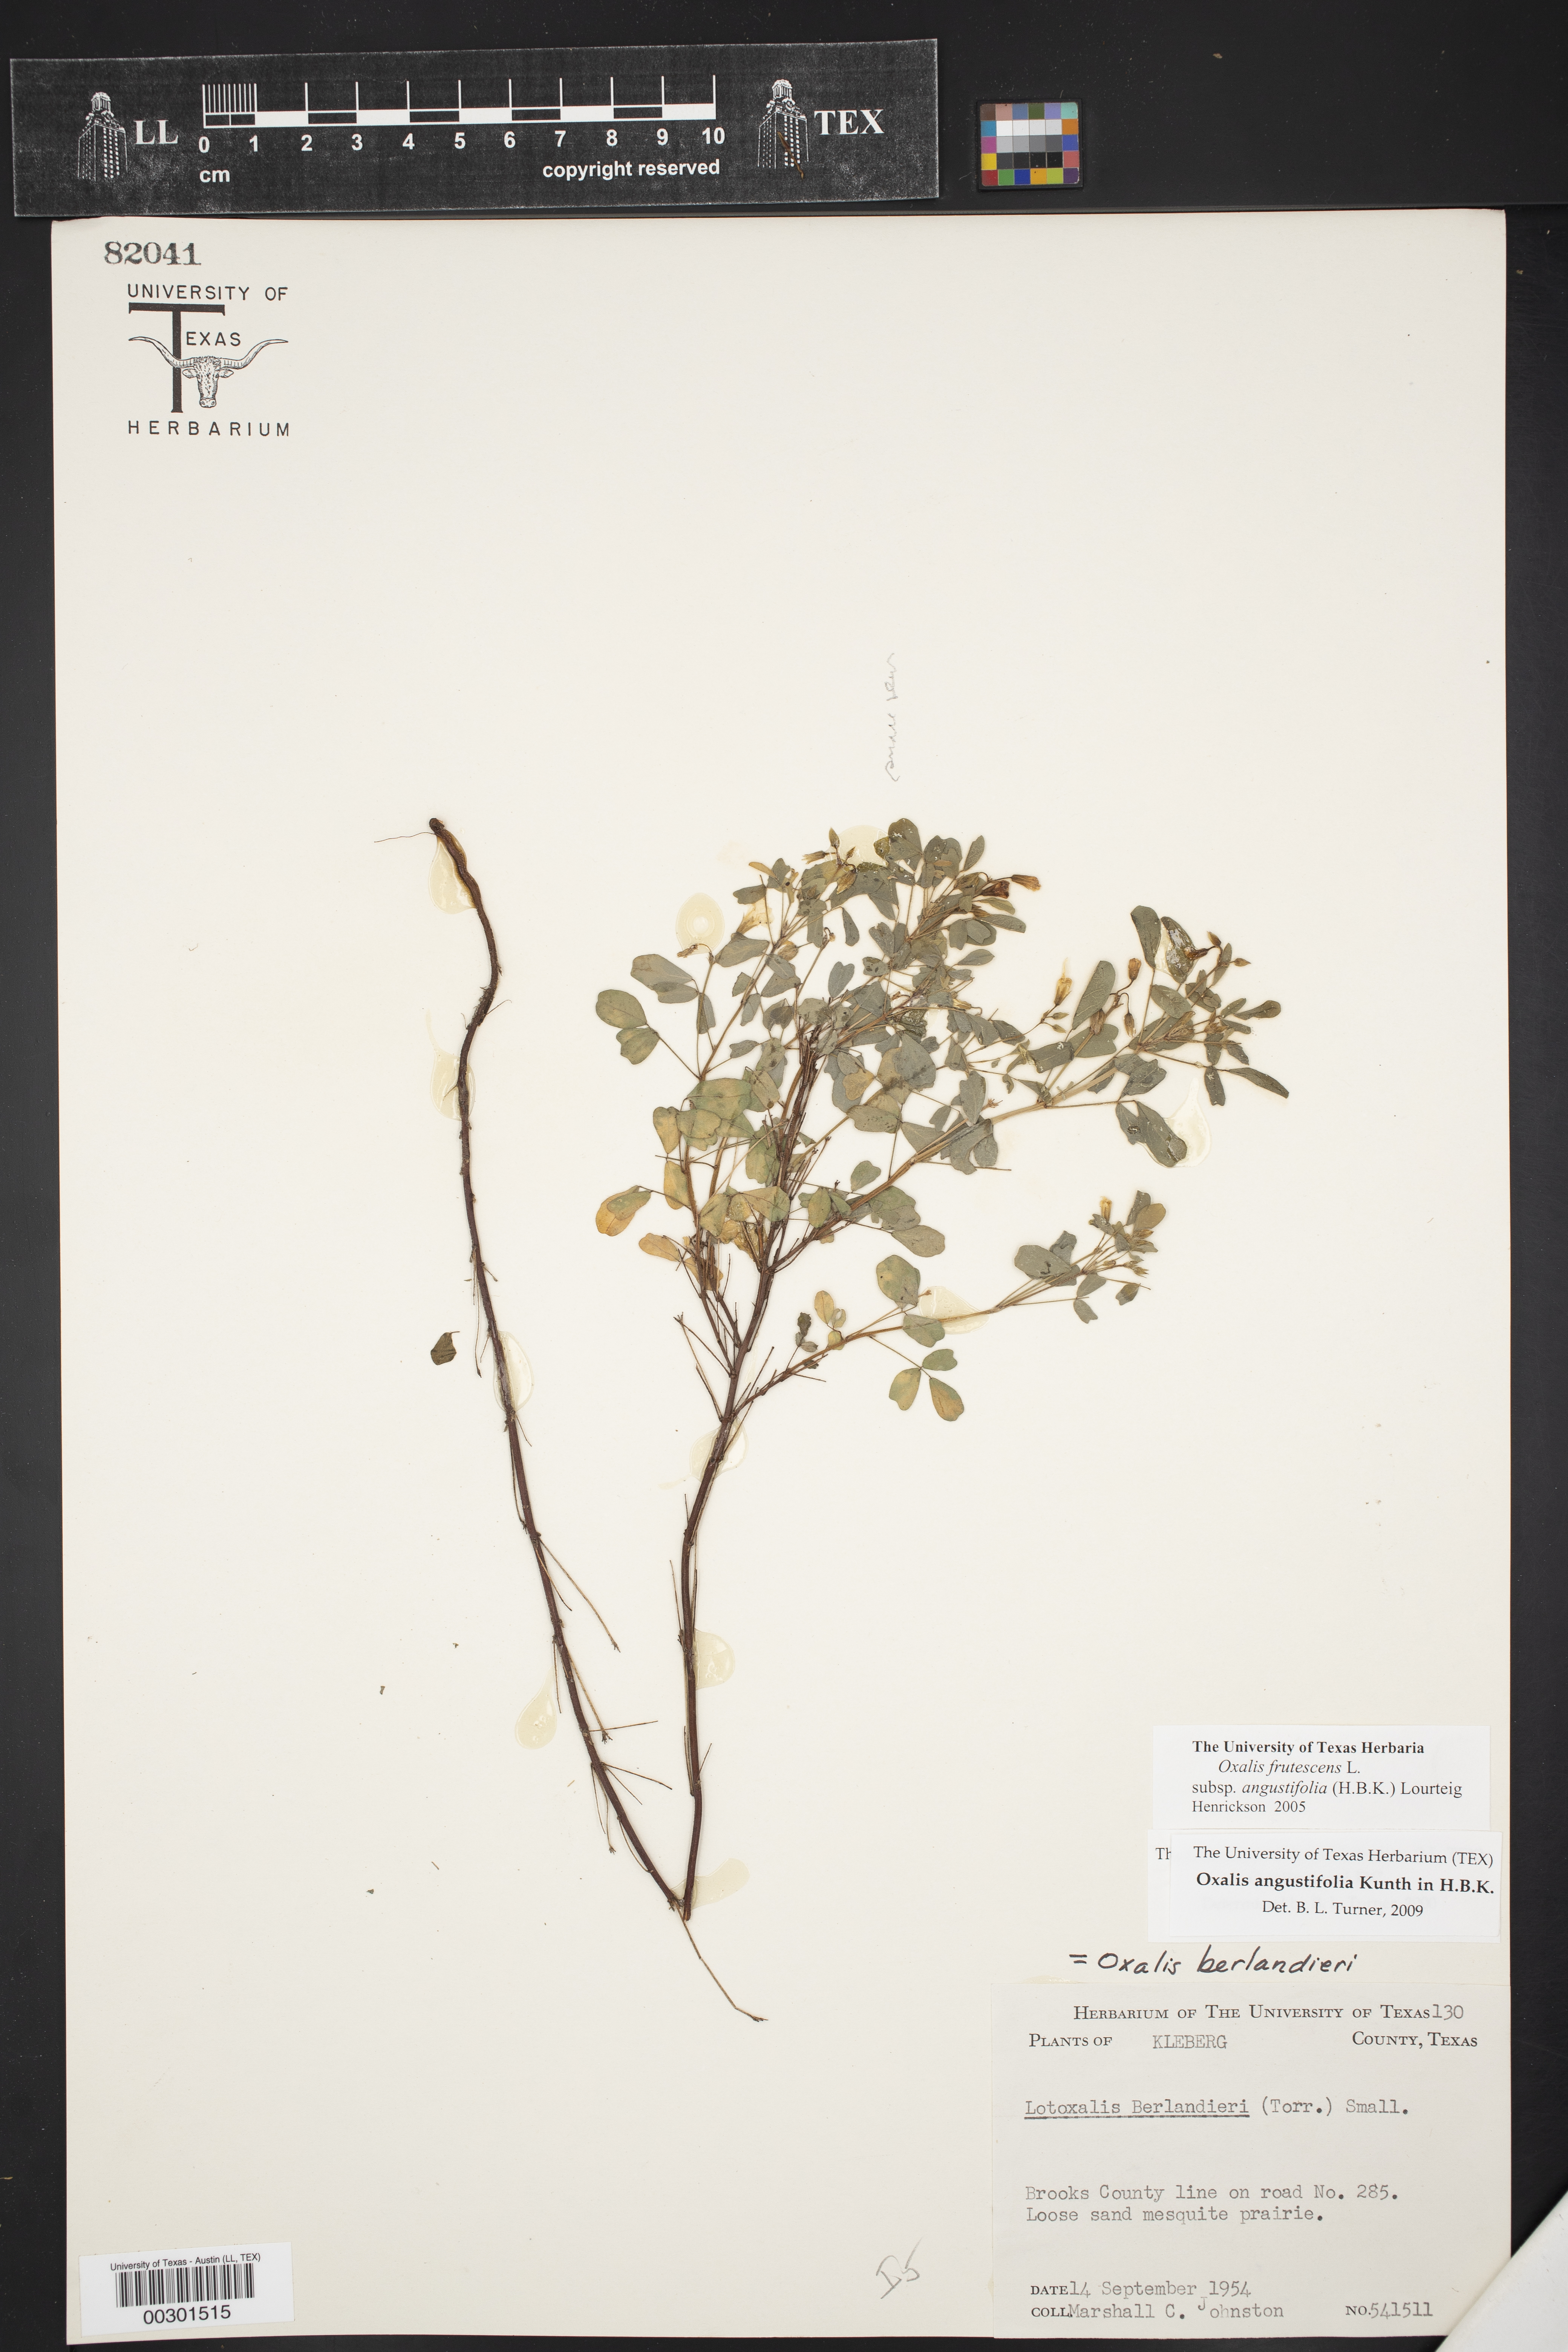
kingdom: Plantae
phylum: Tracheophyta
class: Magnoliopsida
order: Oxalidales
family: Oxalidaceae
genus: Oxalis
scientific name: Oxalis frutescens
